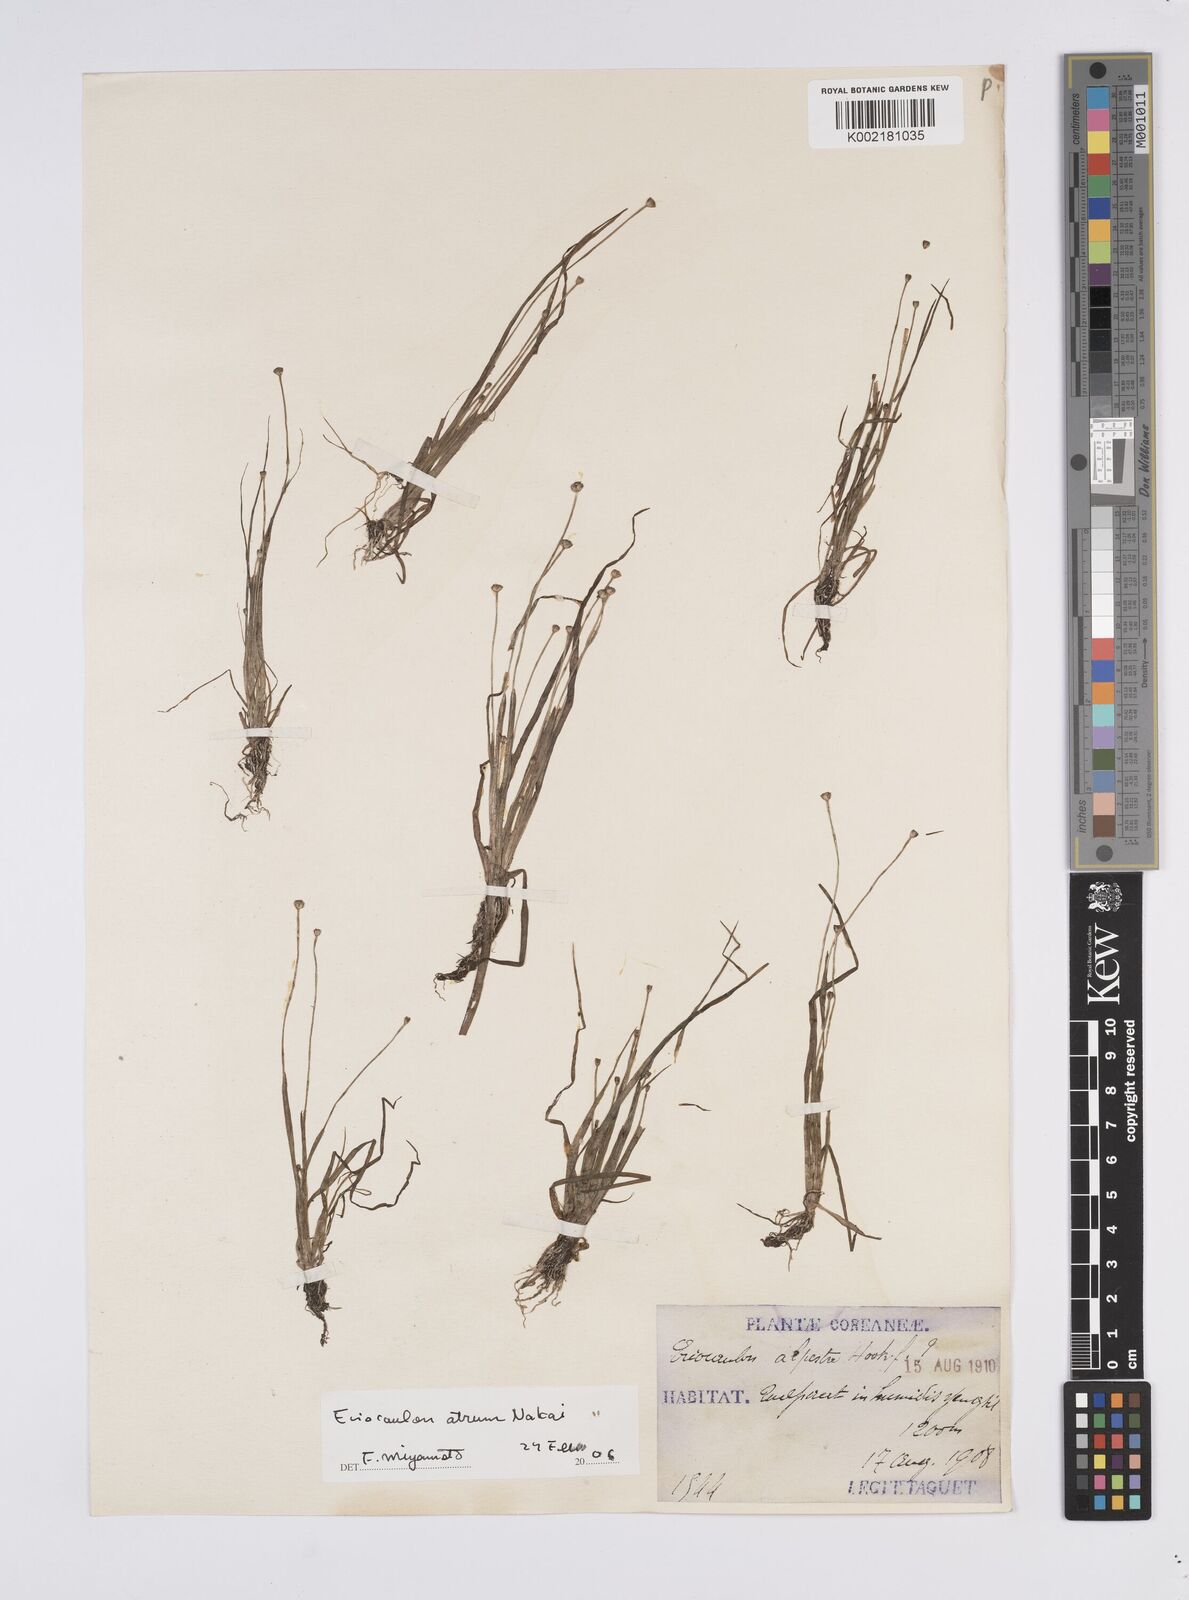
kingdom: Plantae
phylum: Tracheophyta
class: Liliopsida
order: Poales
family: Eriocaulaceae
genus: Eriocaulon
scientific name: Eriocaulon alpestre
